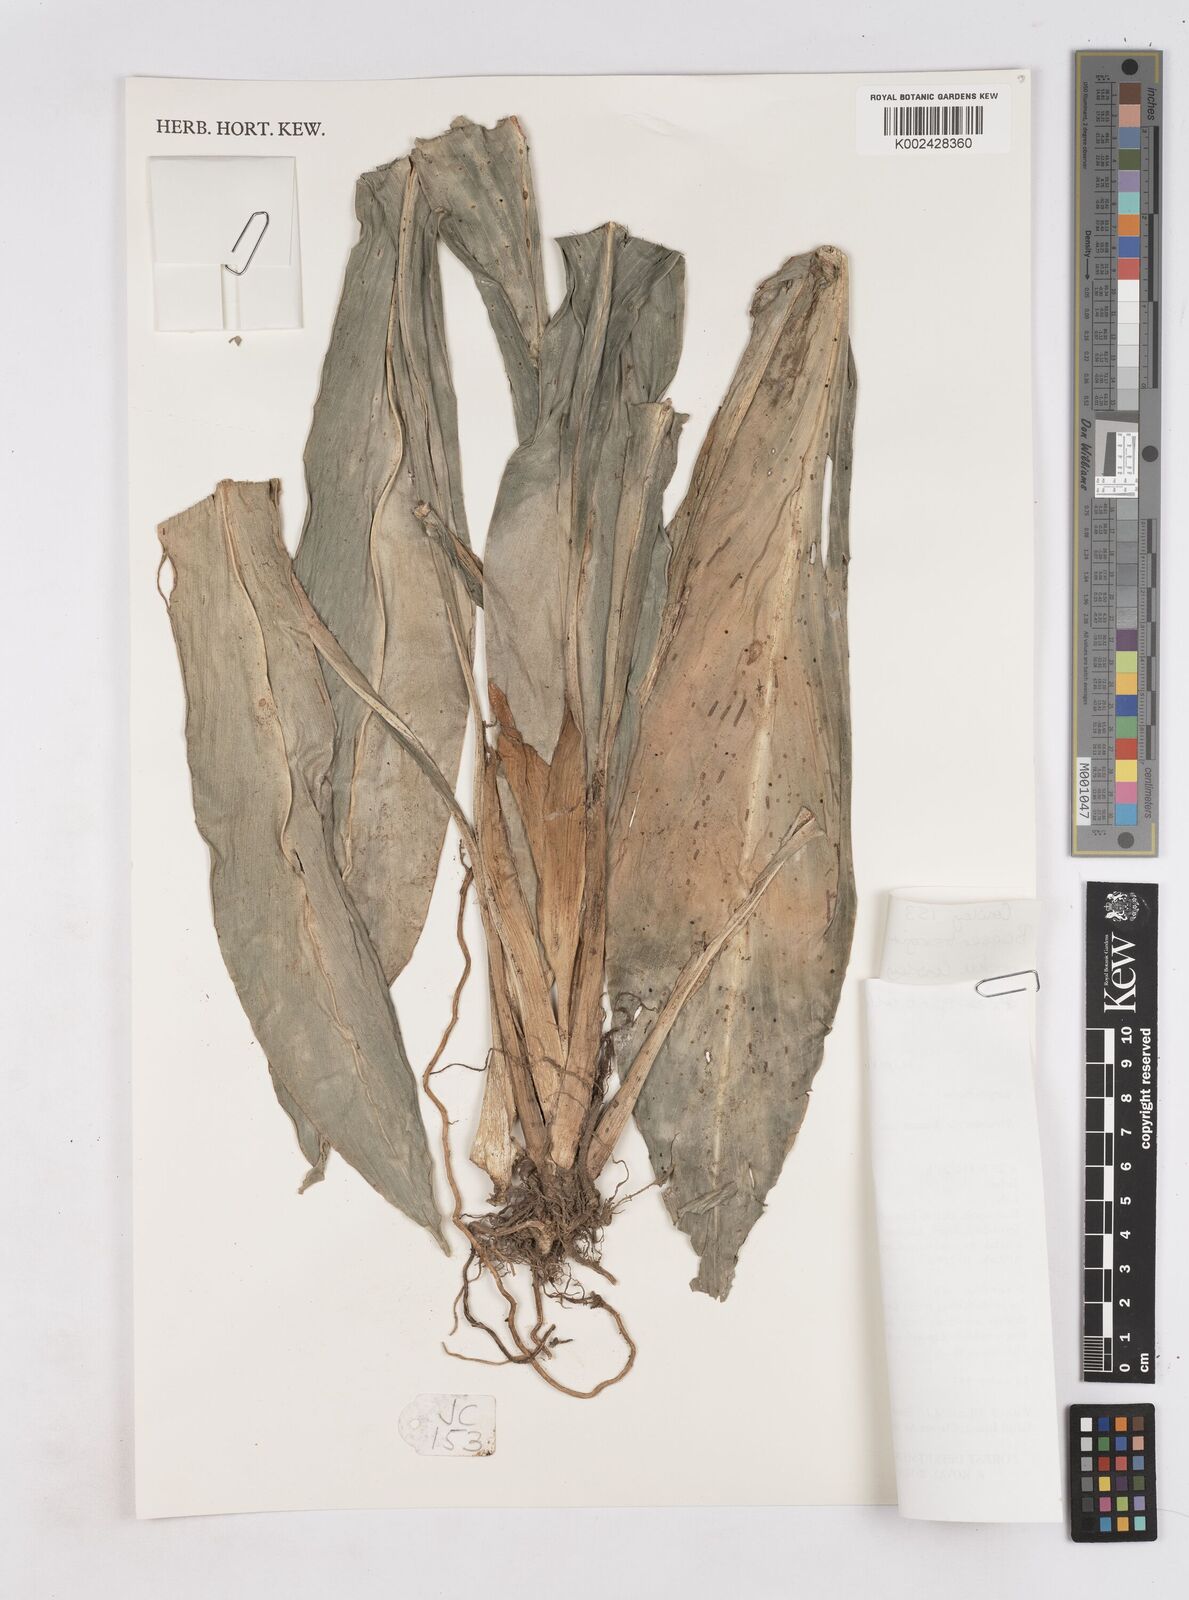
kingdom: Plantae
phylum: Tracheophyta
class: Liliopsida
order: Zingiberales
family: Zingiberaceae
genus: Boesenbergia
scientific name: Boesenbergia armeniaca
